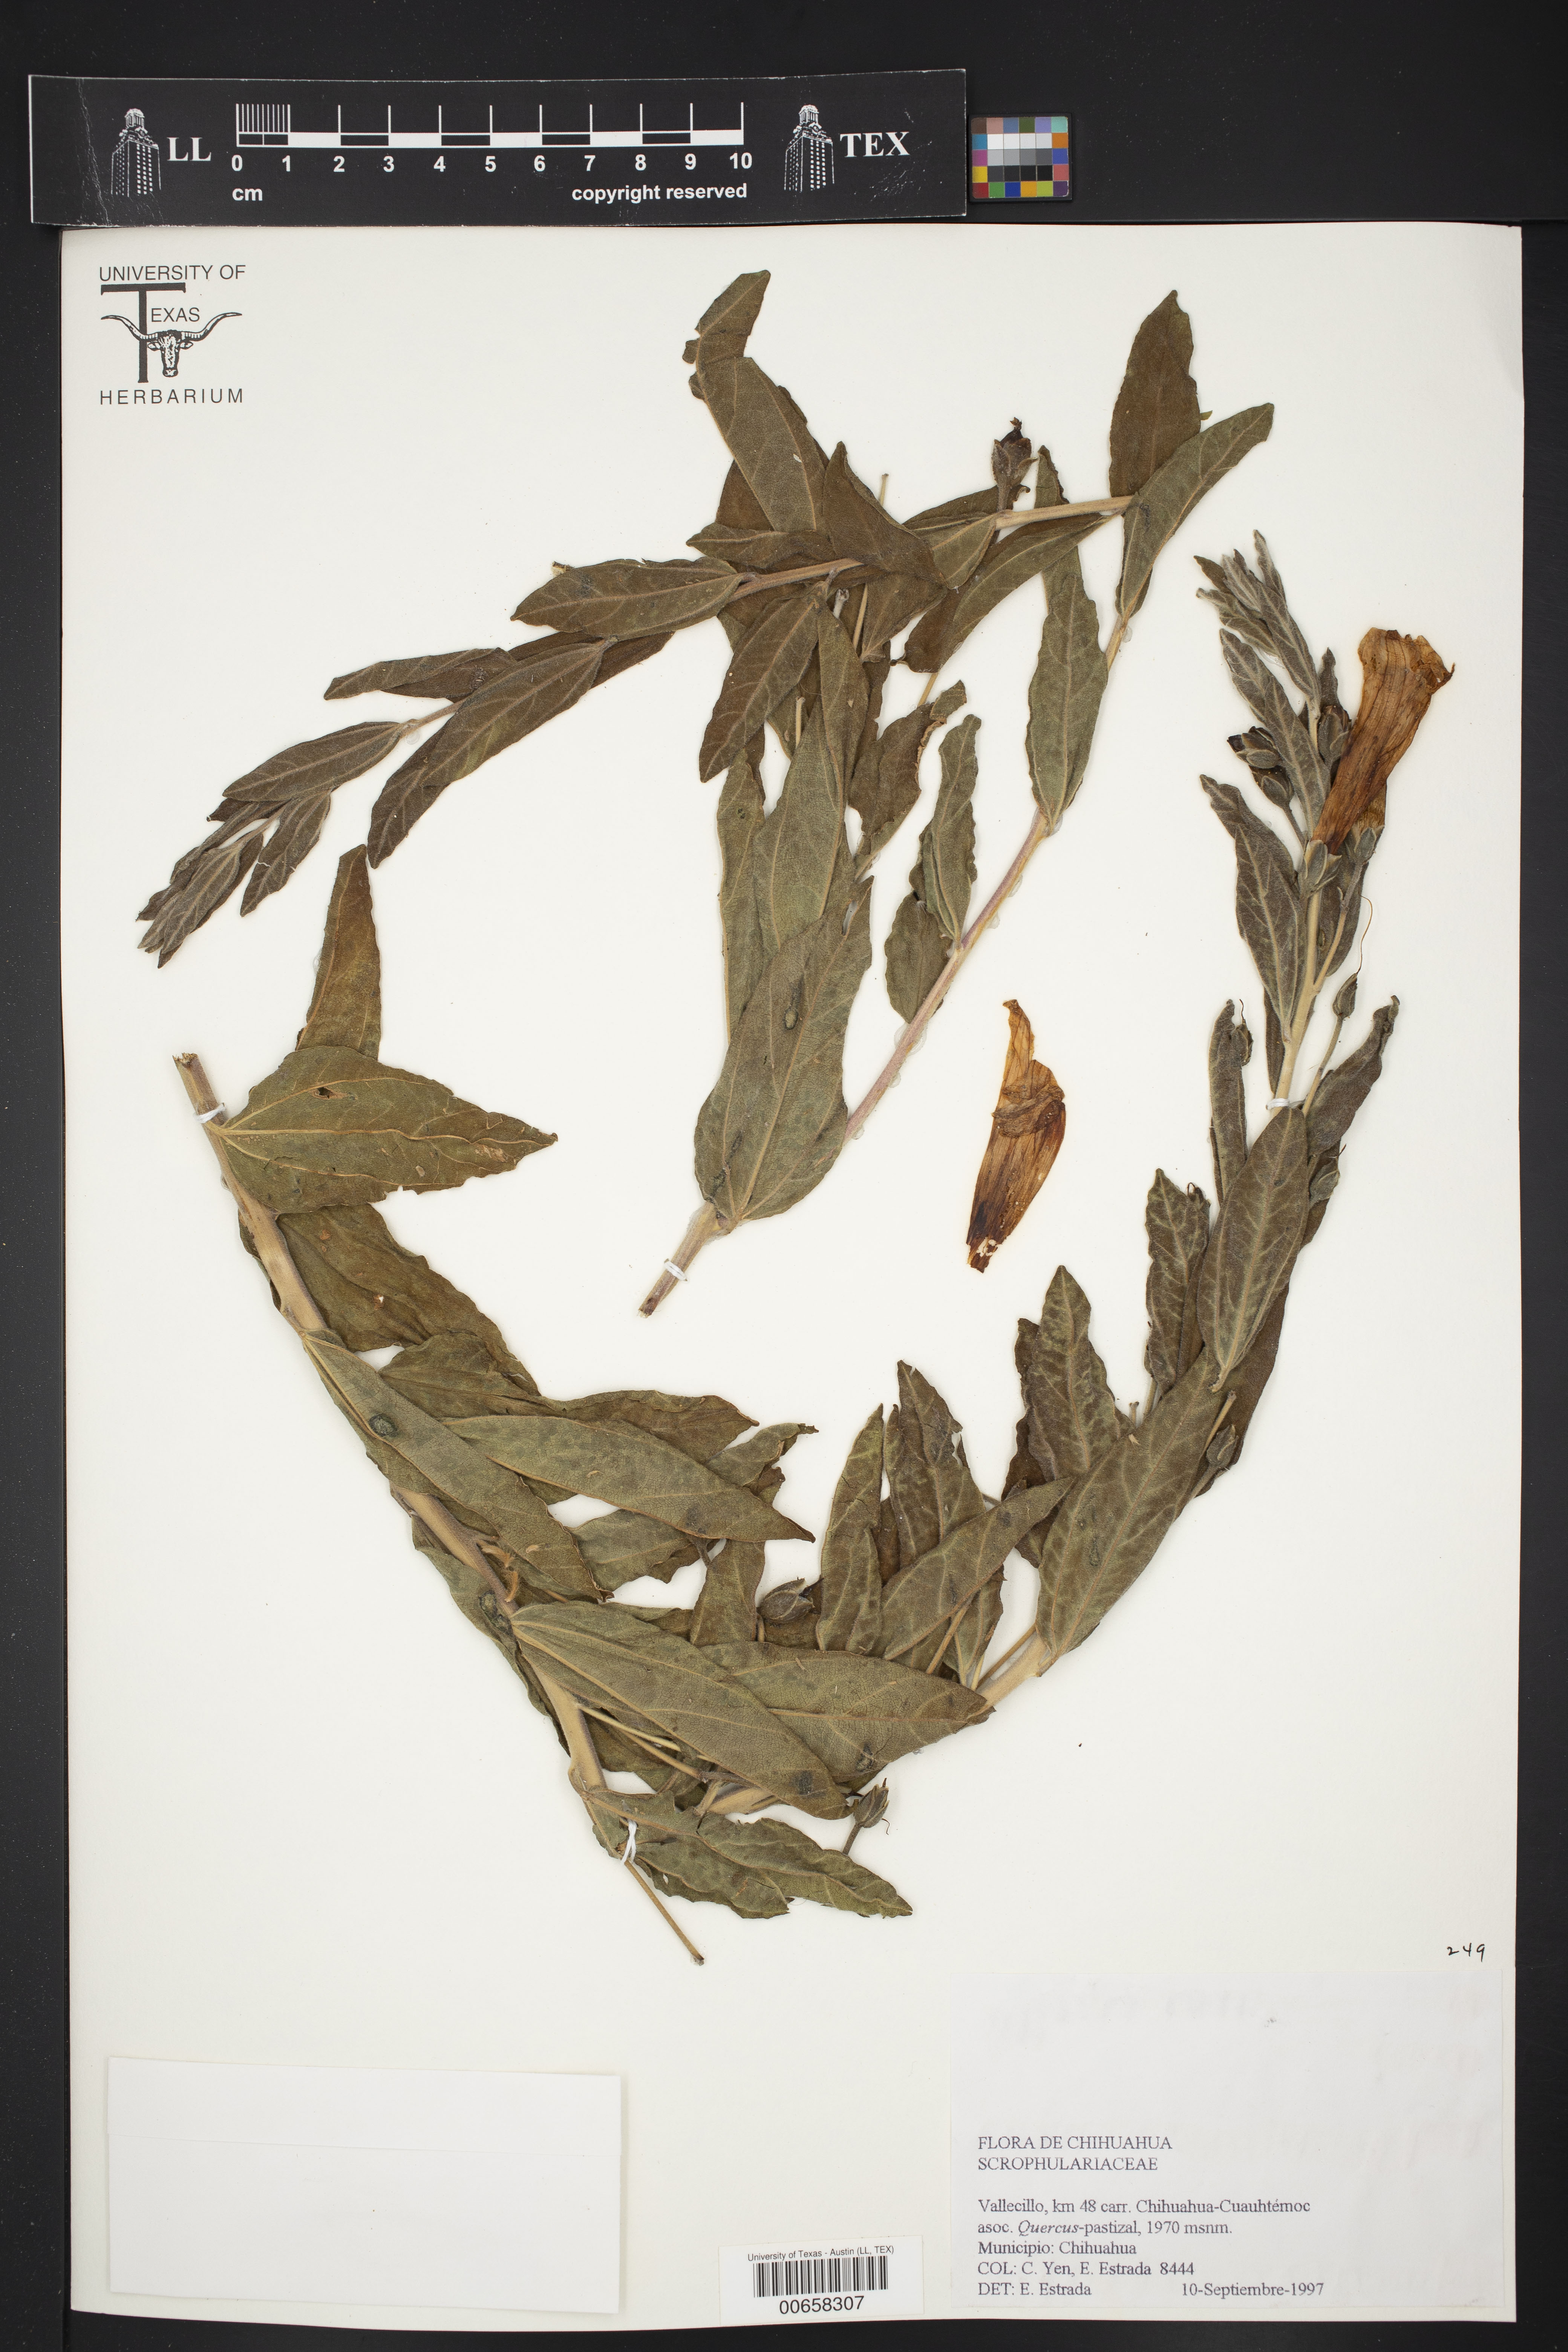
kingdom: Plantae
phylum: Tracheophyta
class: Magnoliopsida
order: Solanales
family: Convolvulaceae
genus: Ipomoea
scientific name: Ipomoea lenis
